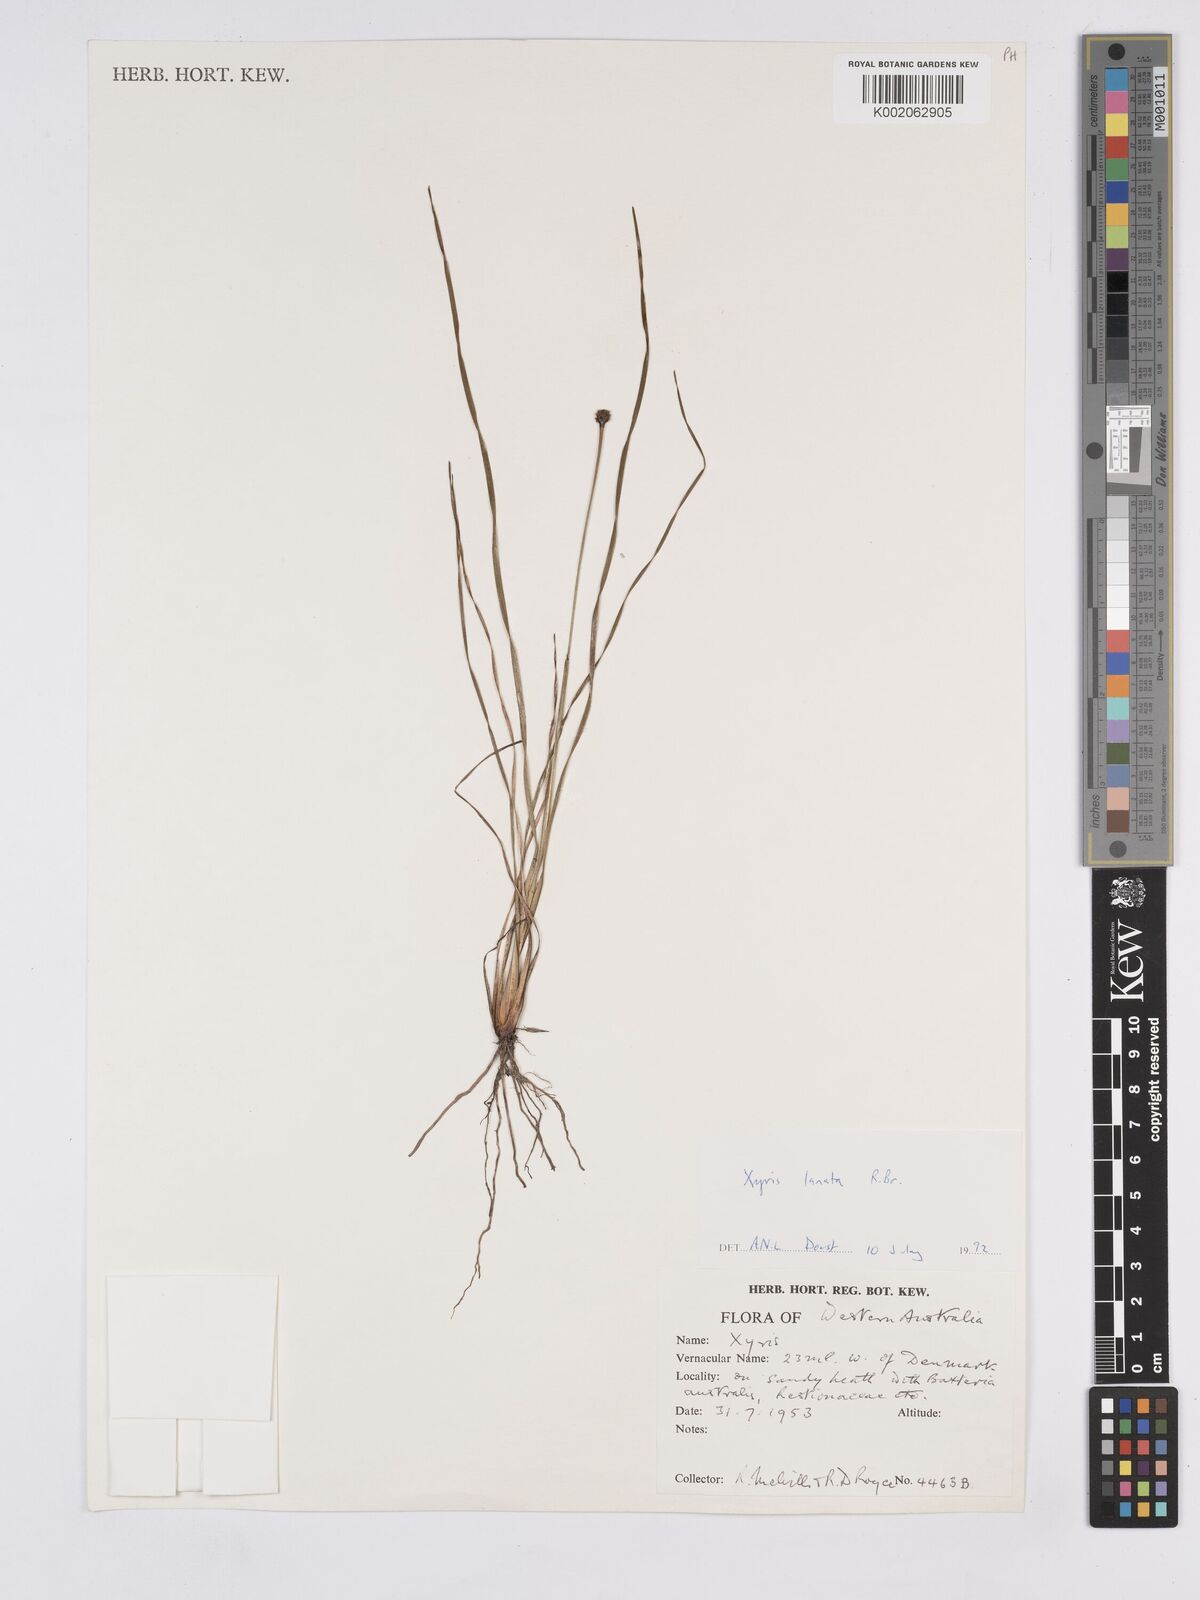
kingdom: Plantae
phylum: Tracheophyta
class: Liliopsida
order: Poales
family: Xyridaceae
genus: Xyris
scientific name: Xyris lanata
